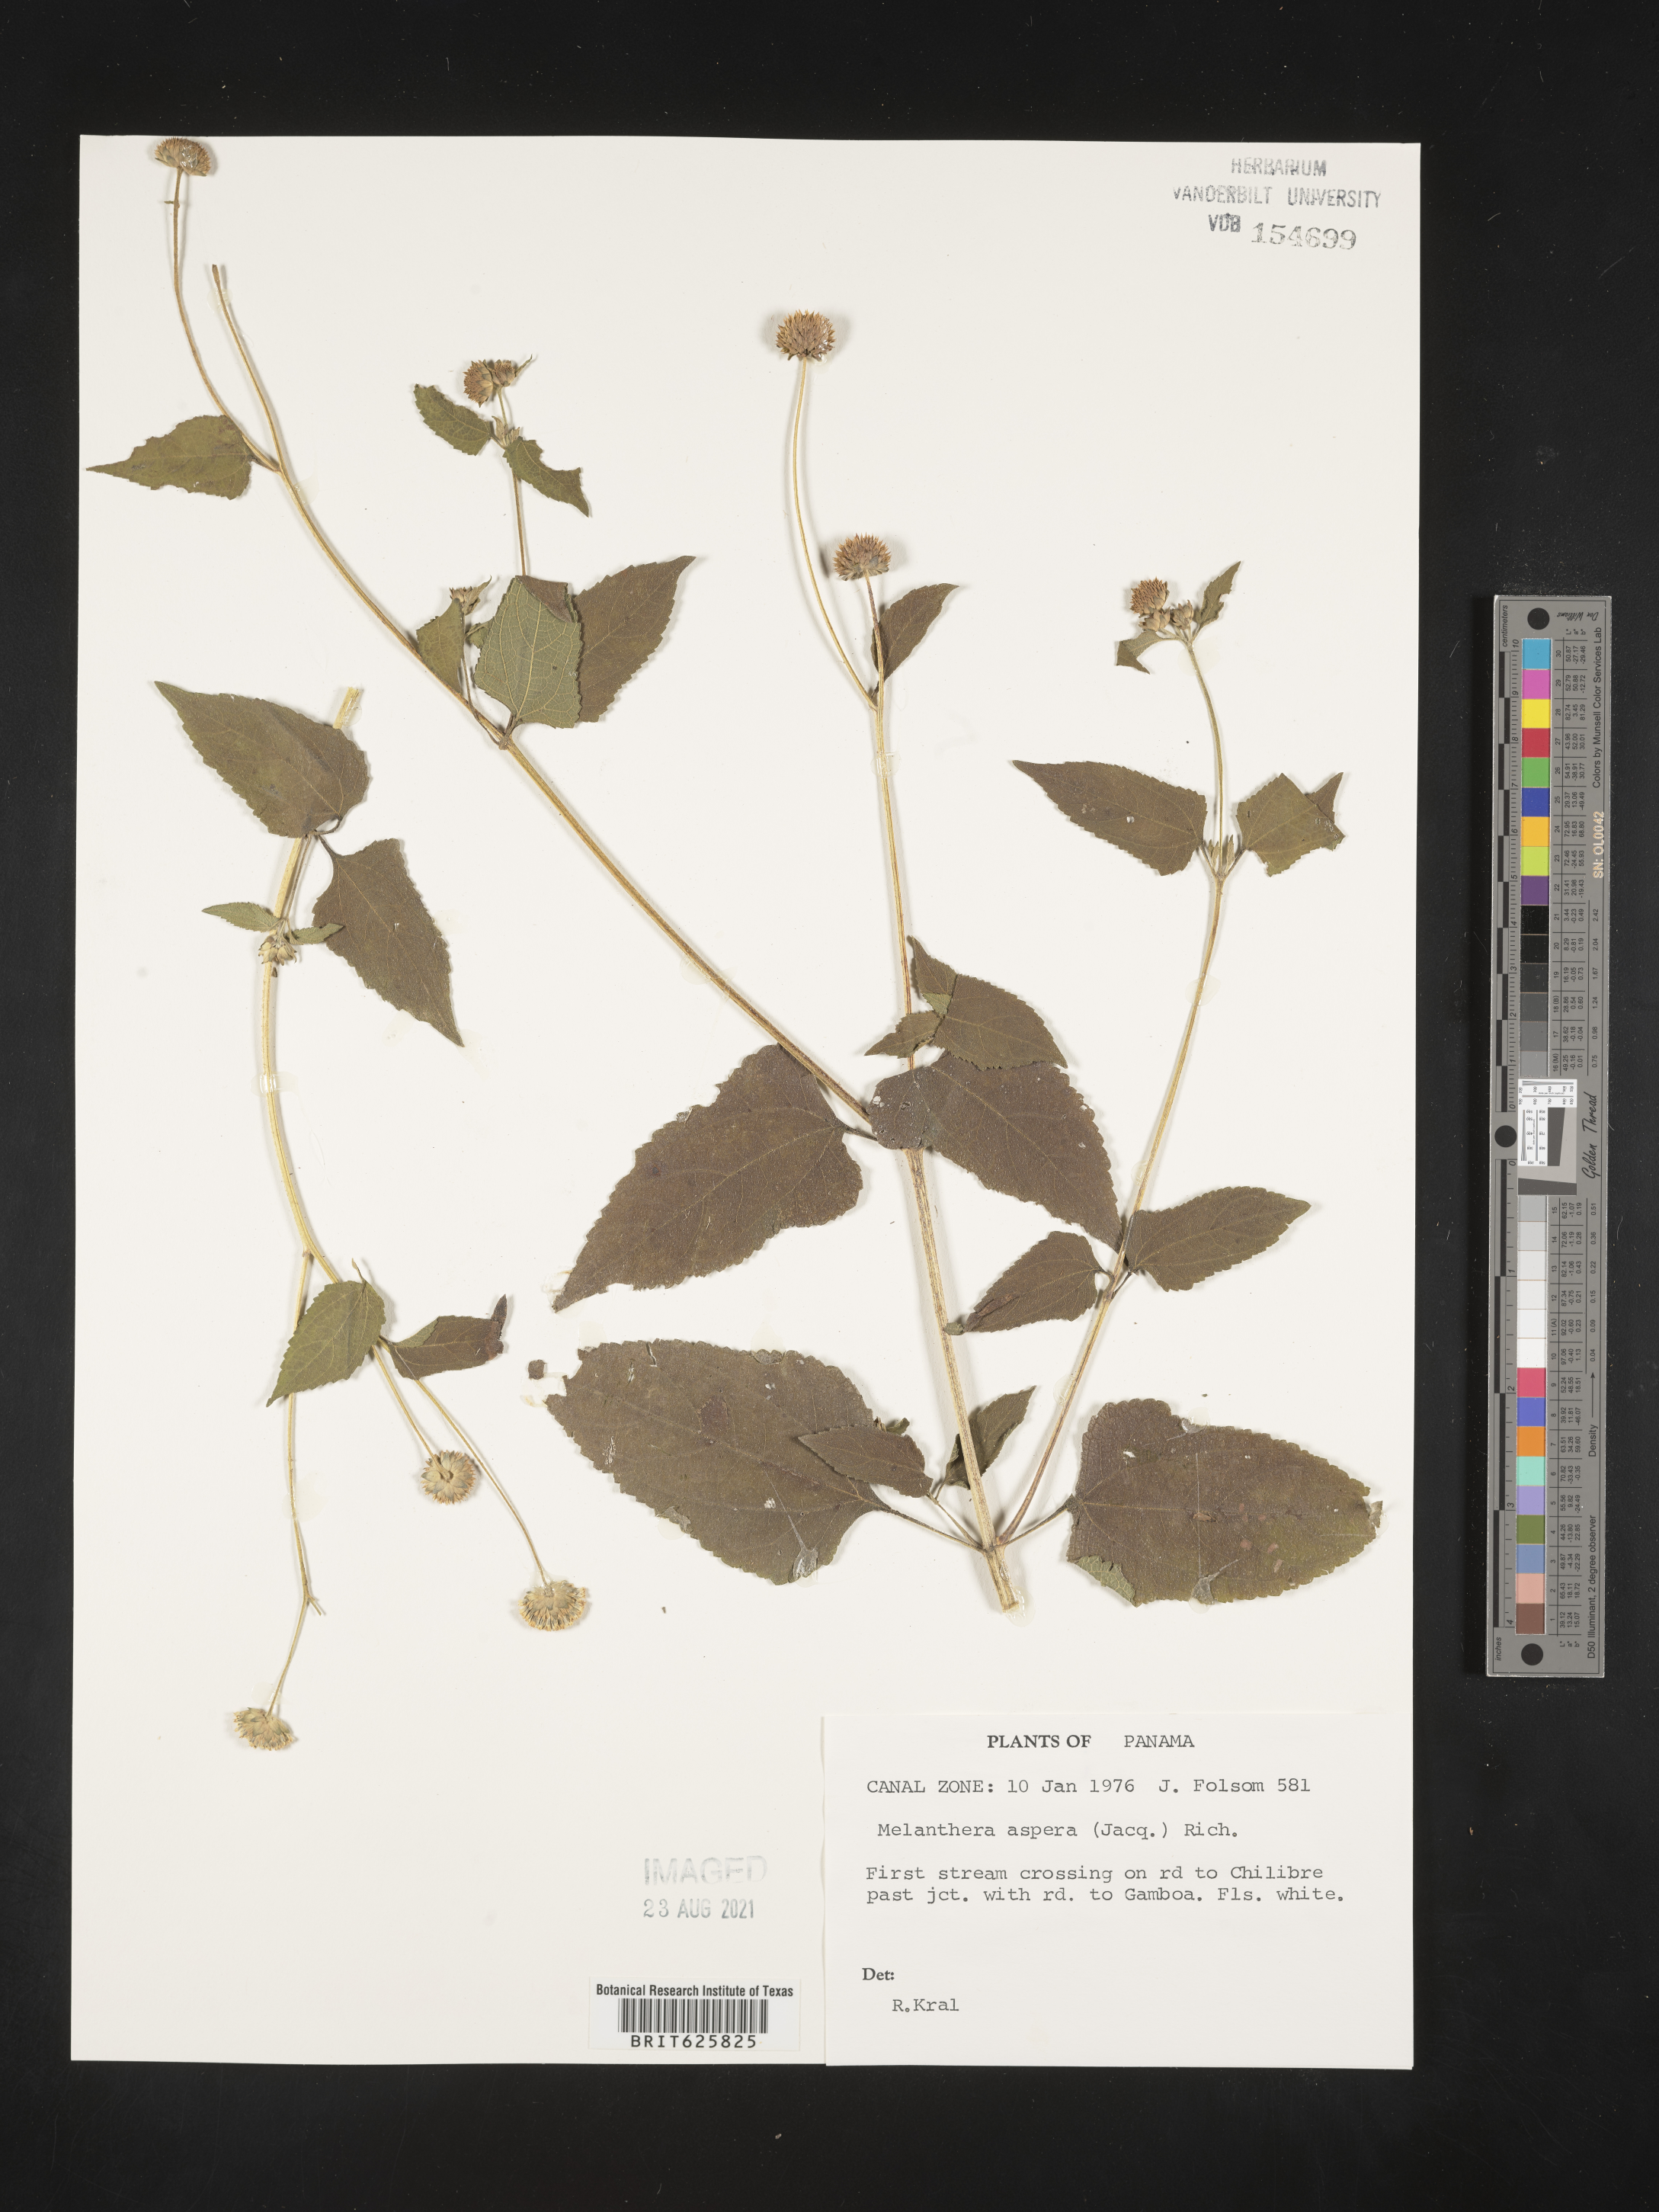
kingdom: Plantae
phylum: Tracheophyta
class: Magnoliopsida
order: Asterales
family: Asteraceae
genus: Melanthera
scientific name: Melanthera nivea
